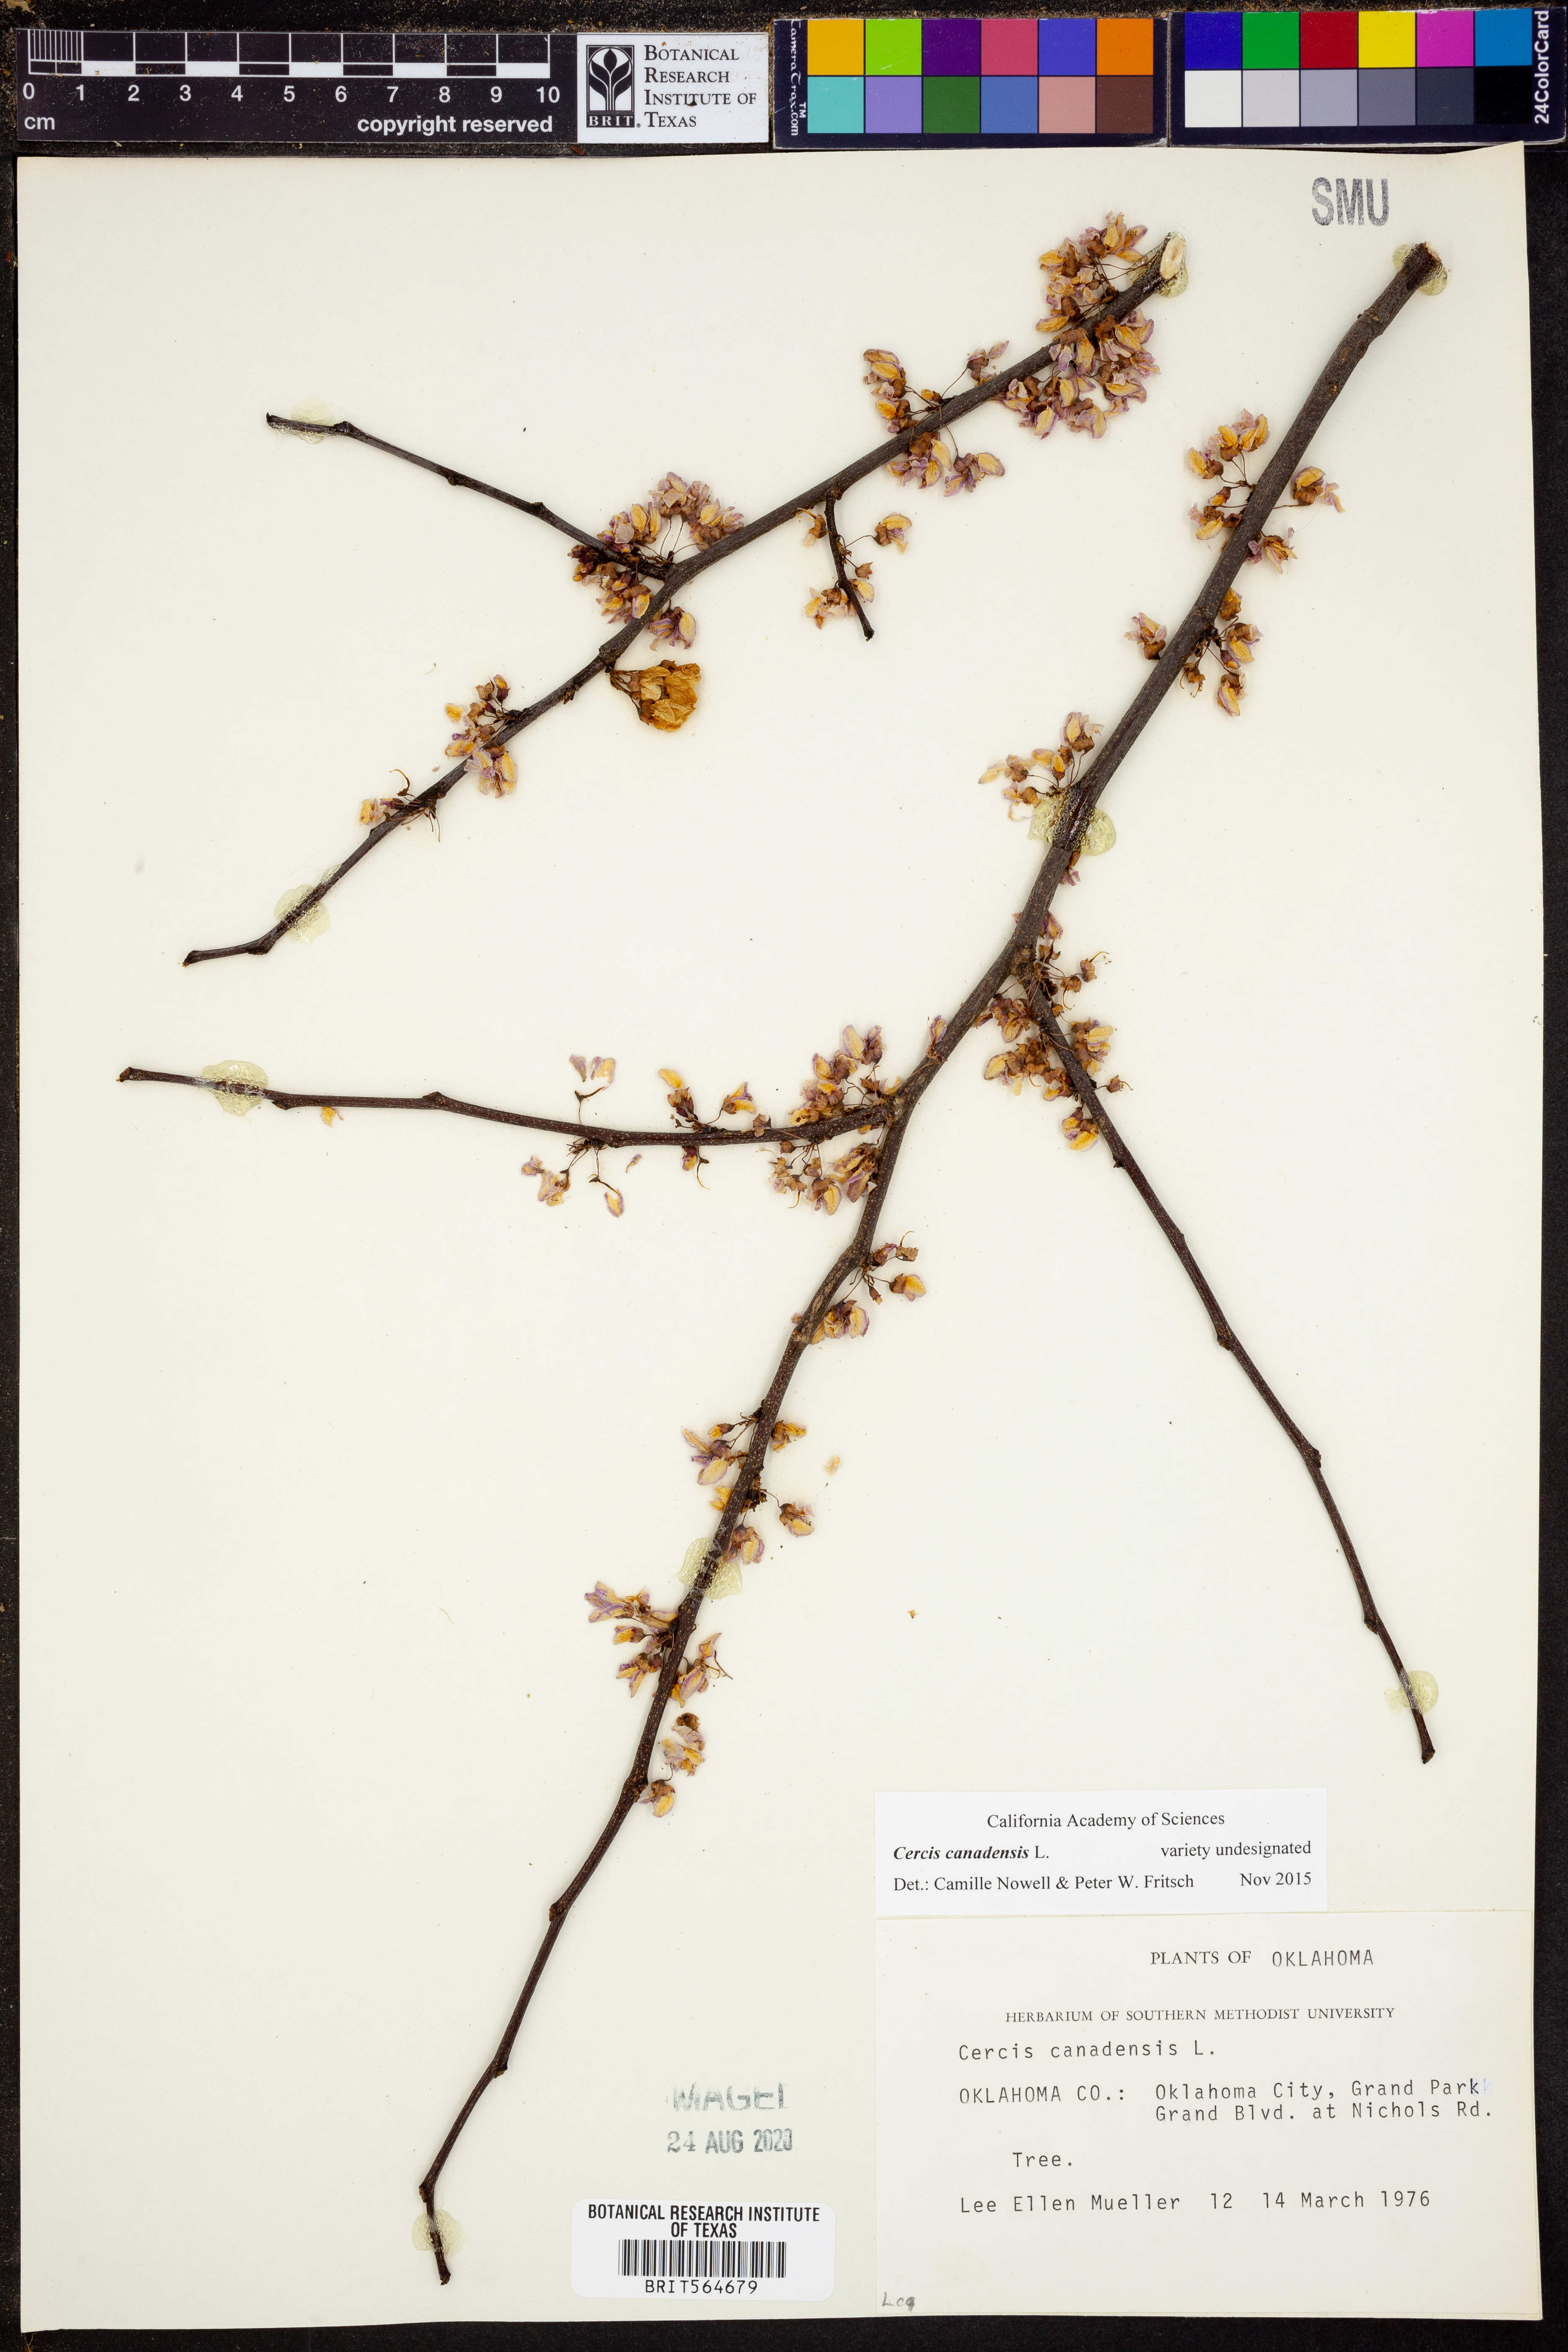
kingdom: Plantae
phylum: Tracheophyta
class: Magnoliopsida
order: Fabales
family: Fabaceae
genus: Cercis
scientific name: Cercis canadensis
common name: Eastern redbud
